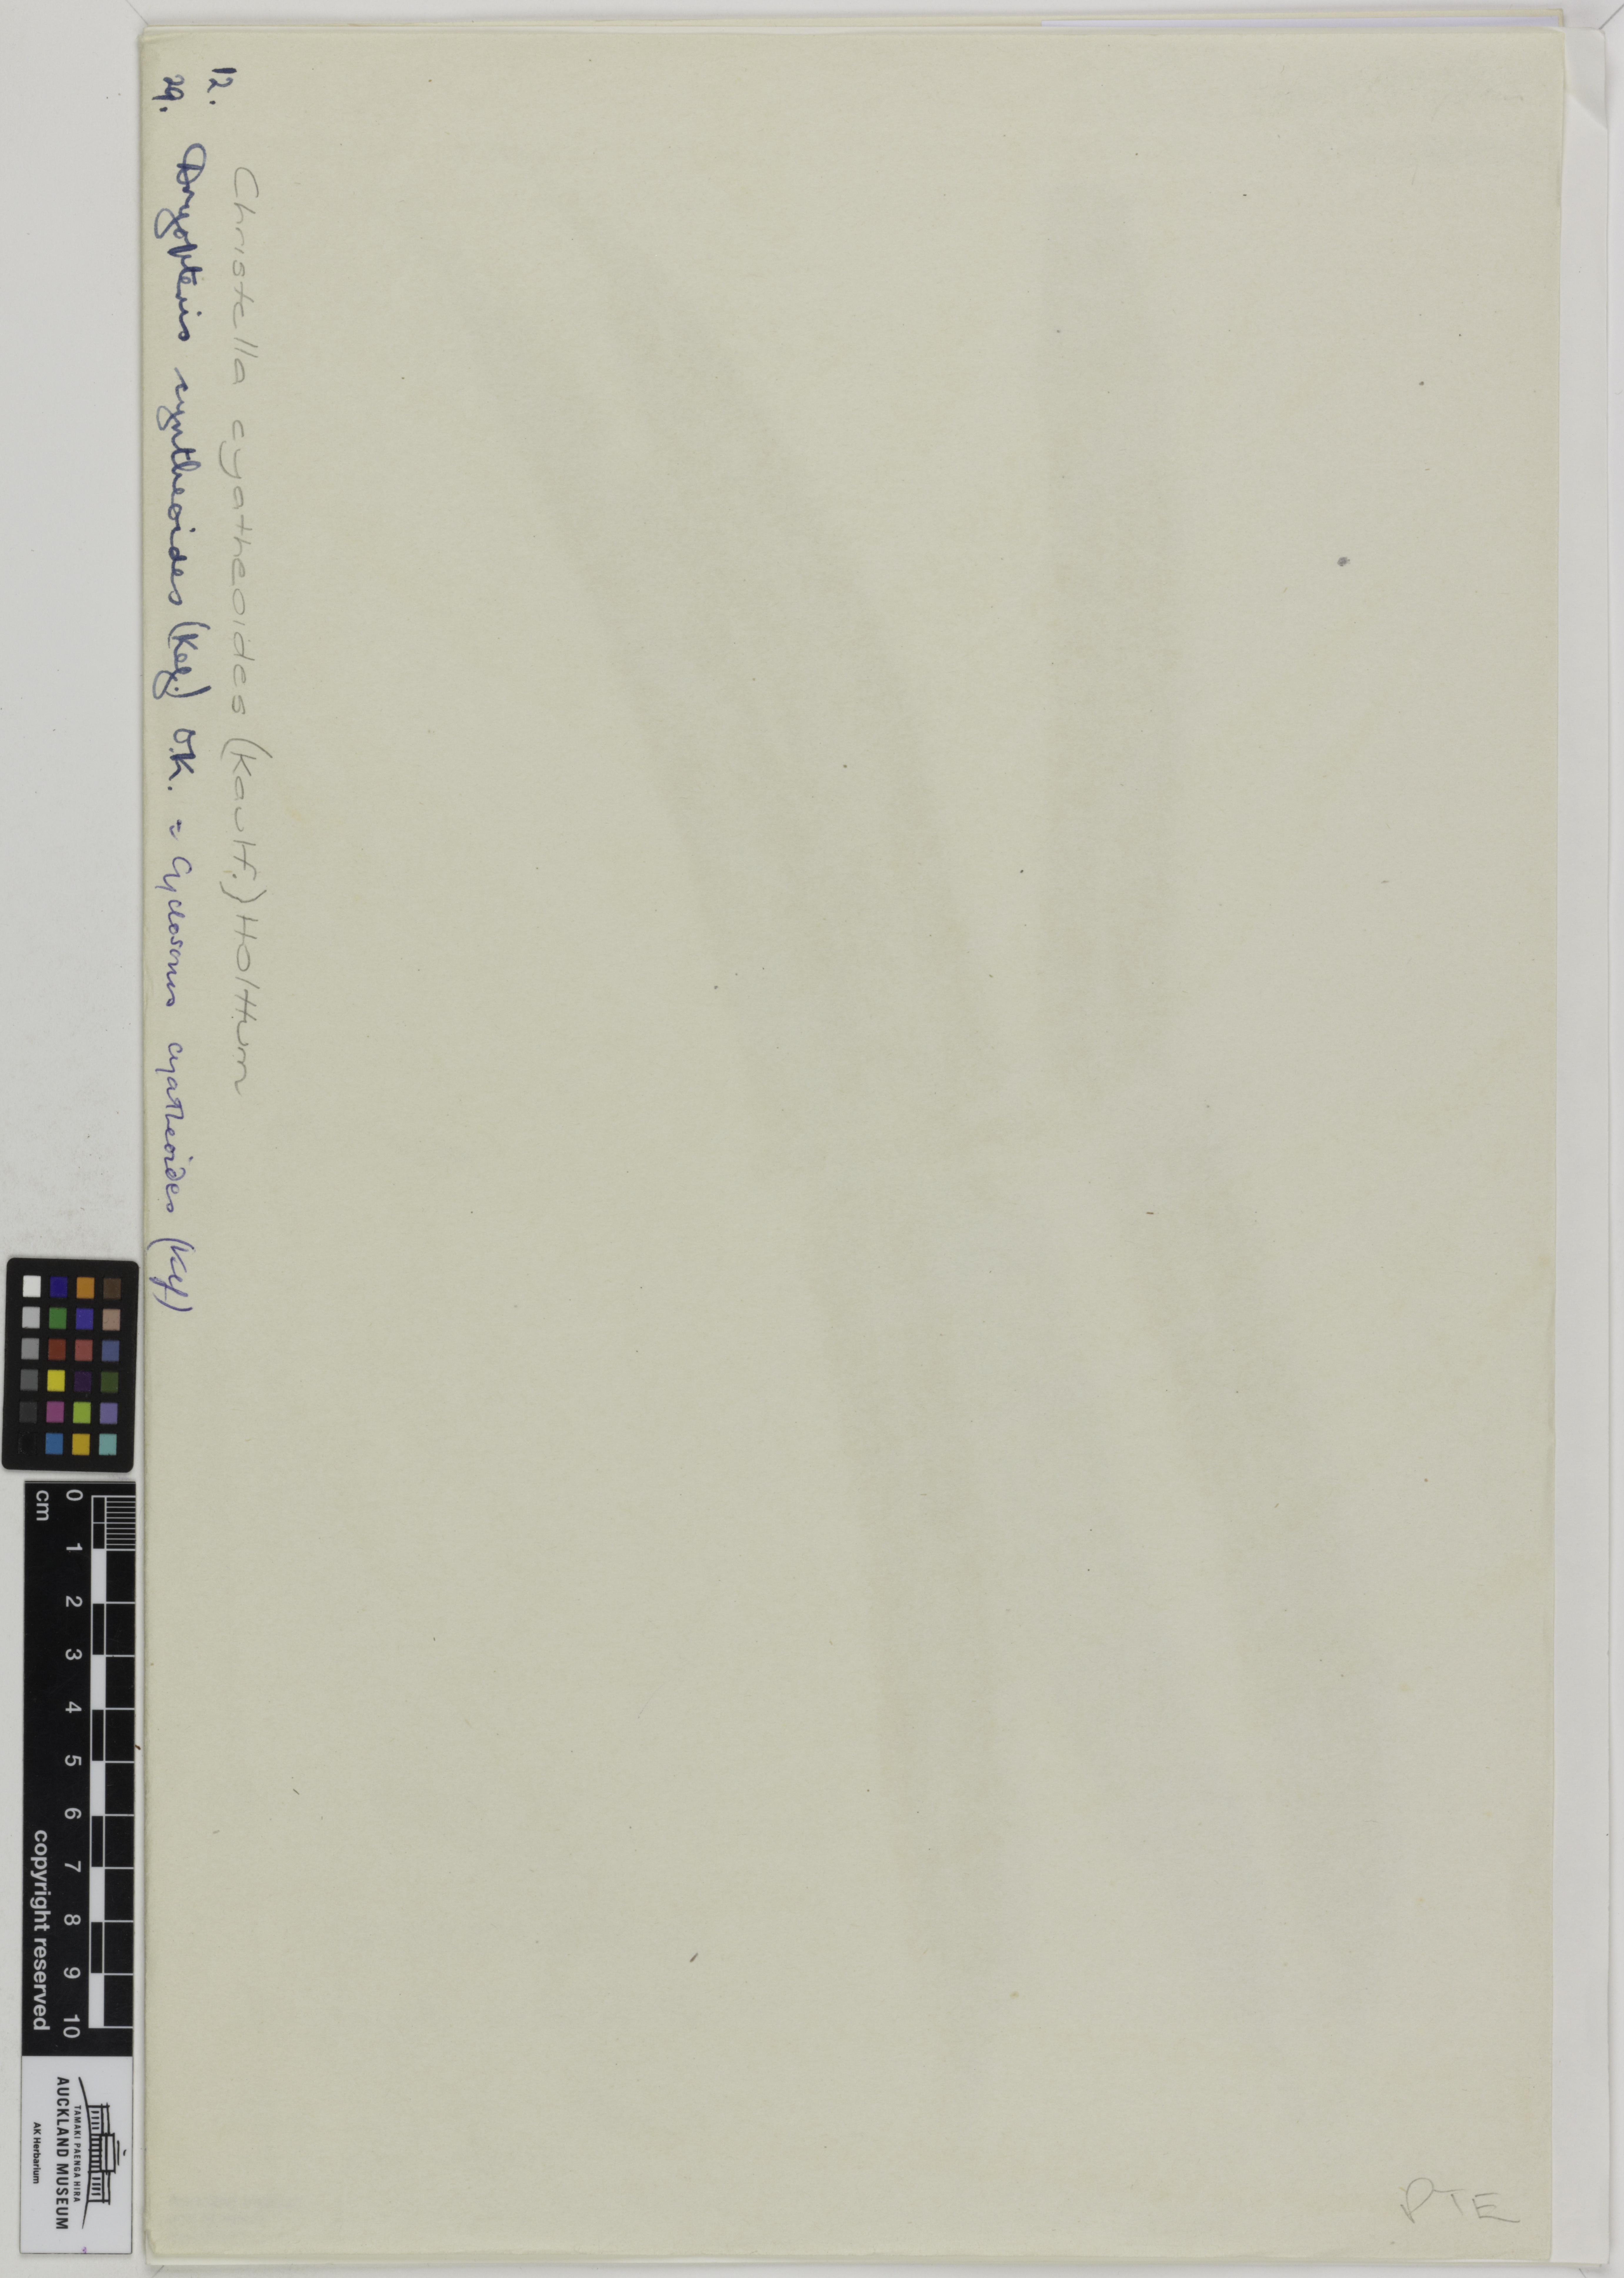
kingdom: Plantae
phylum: Tracheophyta
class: Polypodiopsida
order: Polypodiales
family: Thelypteridaceae
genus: Menisciopsis
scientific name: Menisciopsis cyatheoides
